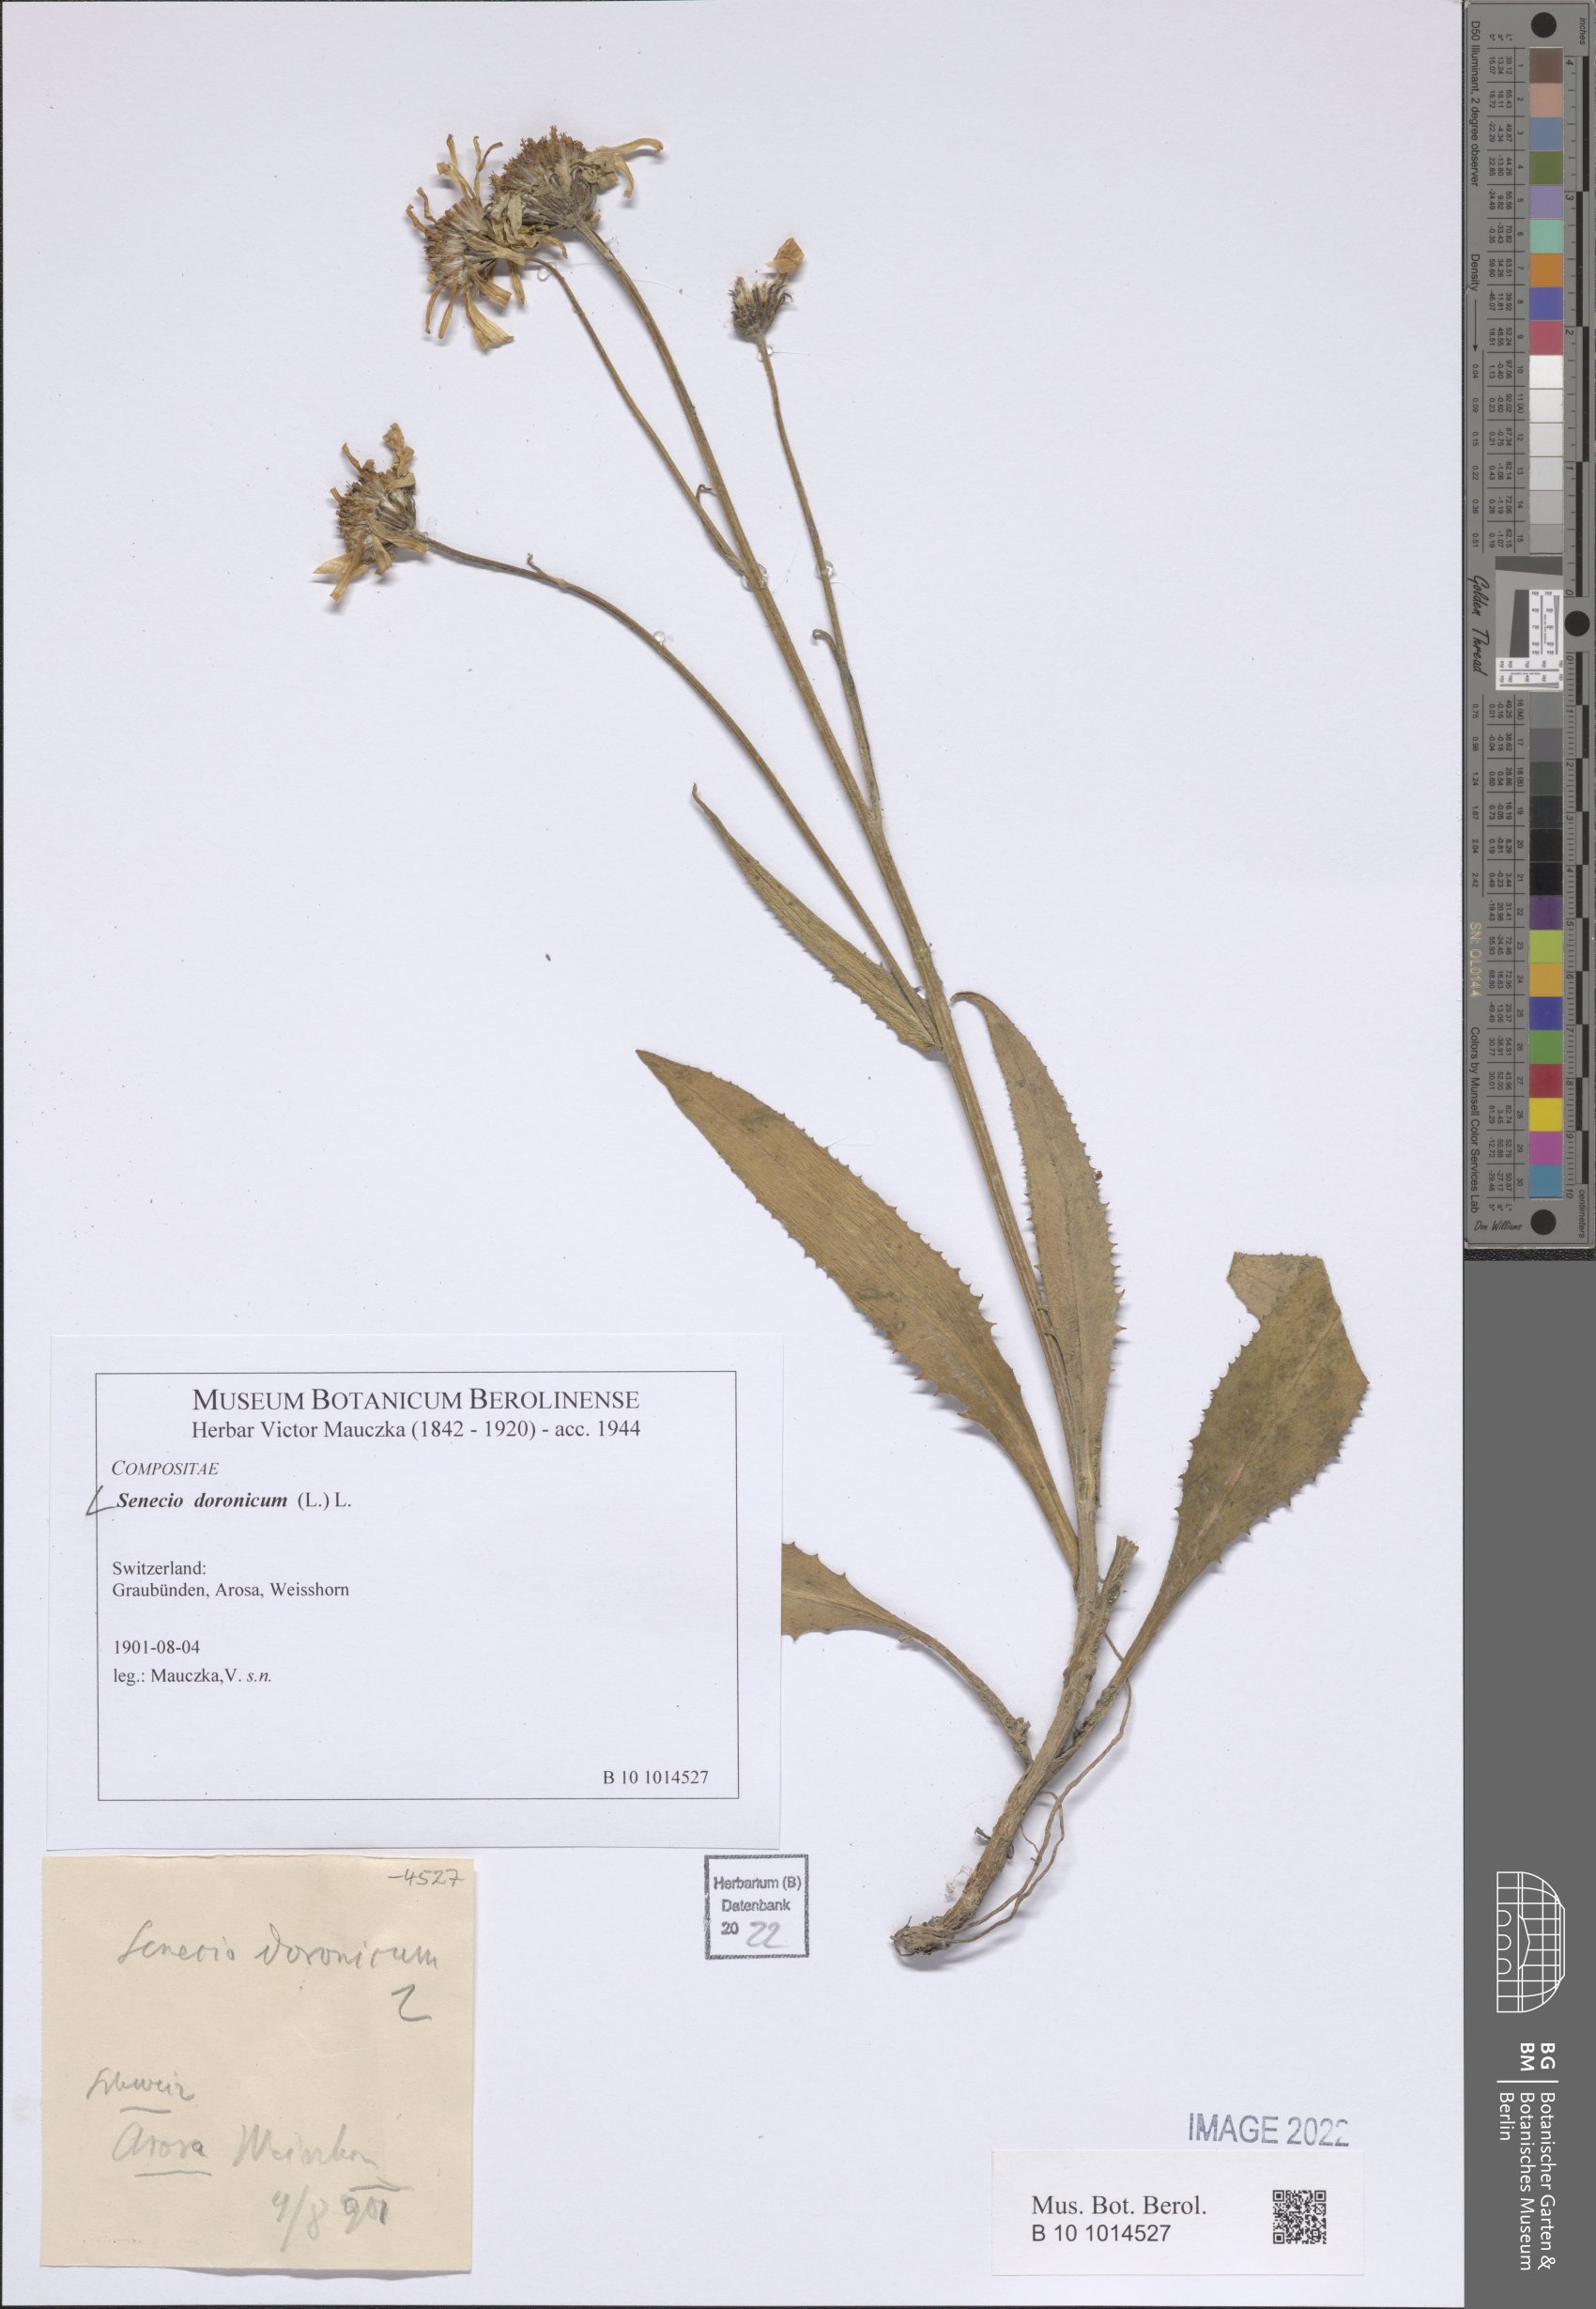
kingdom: Plantae
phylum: Tracheophyta
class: Magnoliopsida
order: Asterales
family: Asteraceae
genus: Senecio
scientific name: Senecio doronicum
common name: Chamois ragwort
